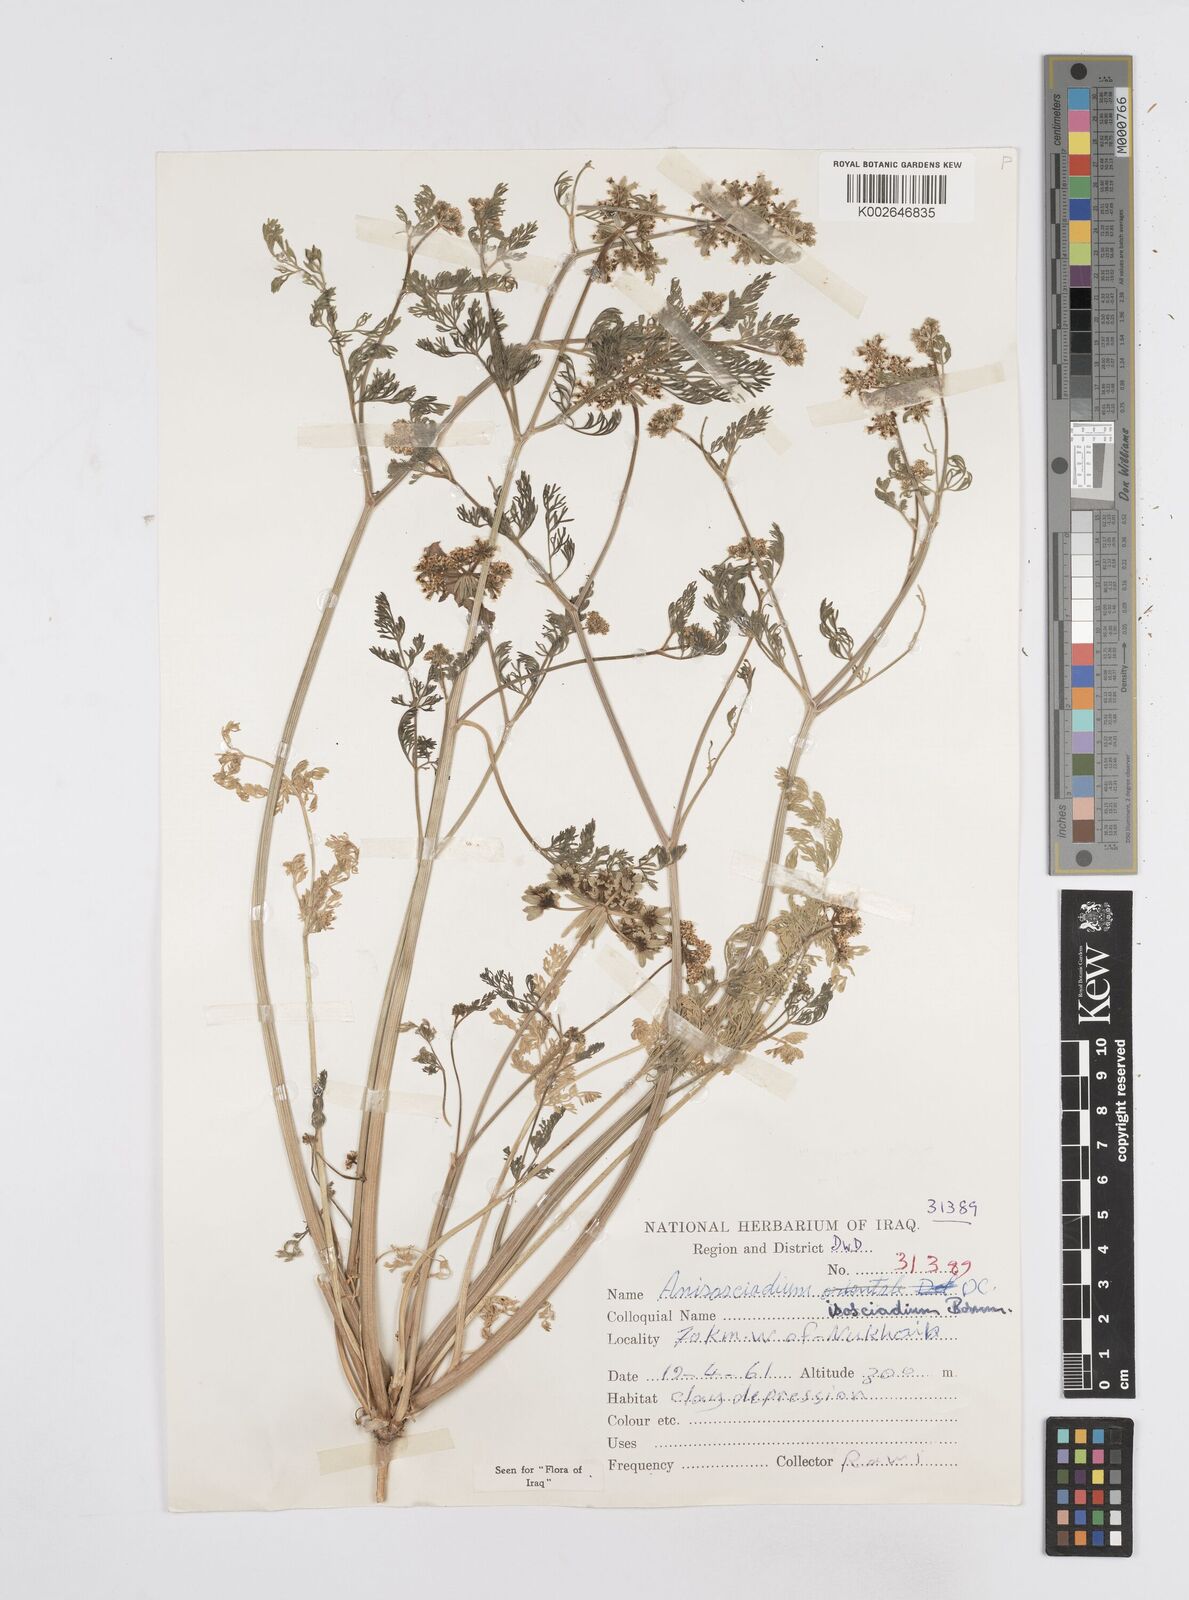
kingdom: Plantae
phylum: Tracheophyta
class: Magnoliopsida
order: Apiales
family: Apiaceae
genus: Anisosciadium
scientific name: Anisosciadium isosciadium
